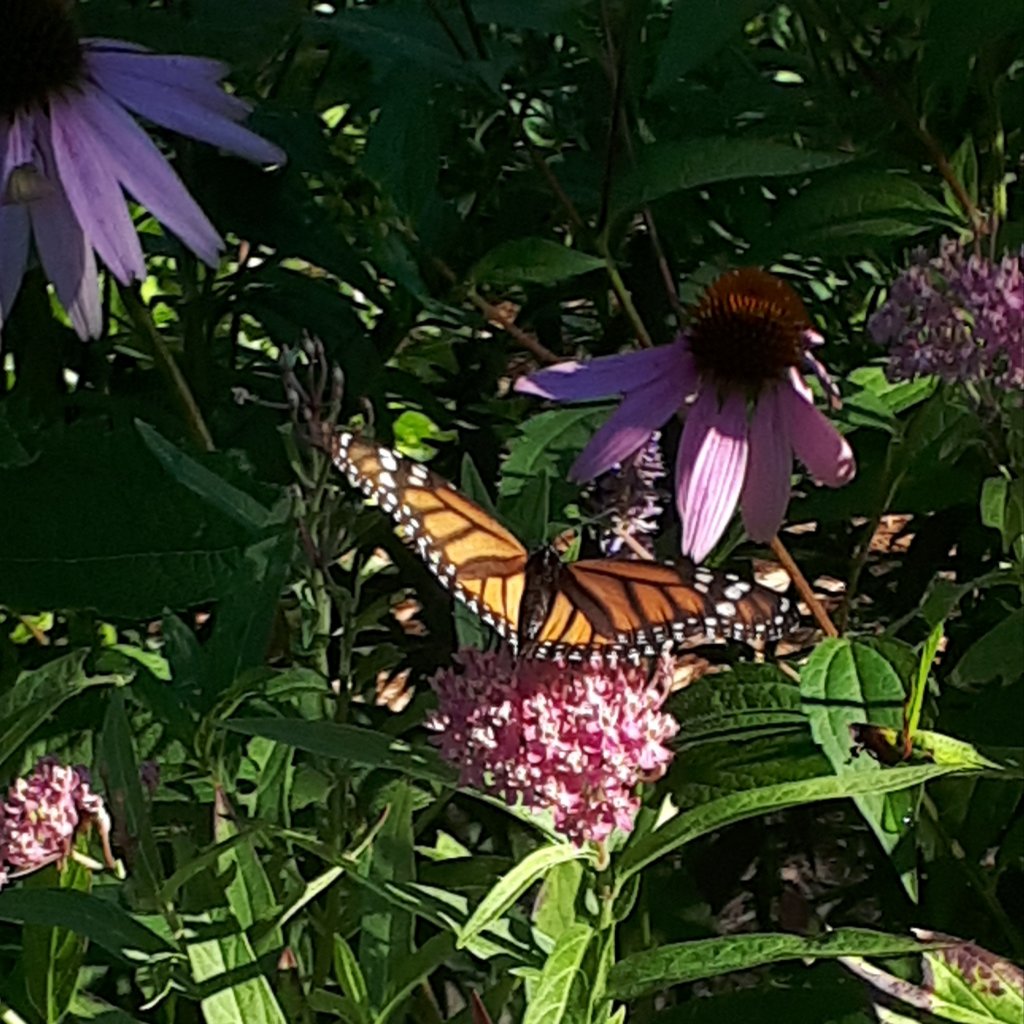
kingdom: Animalia
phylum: Arthropoda
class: Insecta
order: Lepidoptera
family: Nymphalidae
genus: Danaus
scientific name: Danaus plexippus
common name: Monarch
